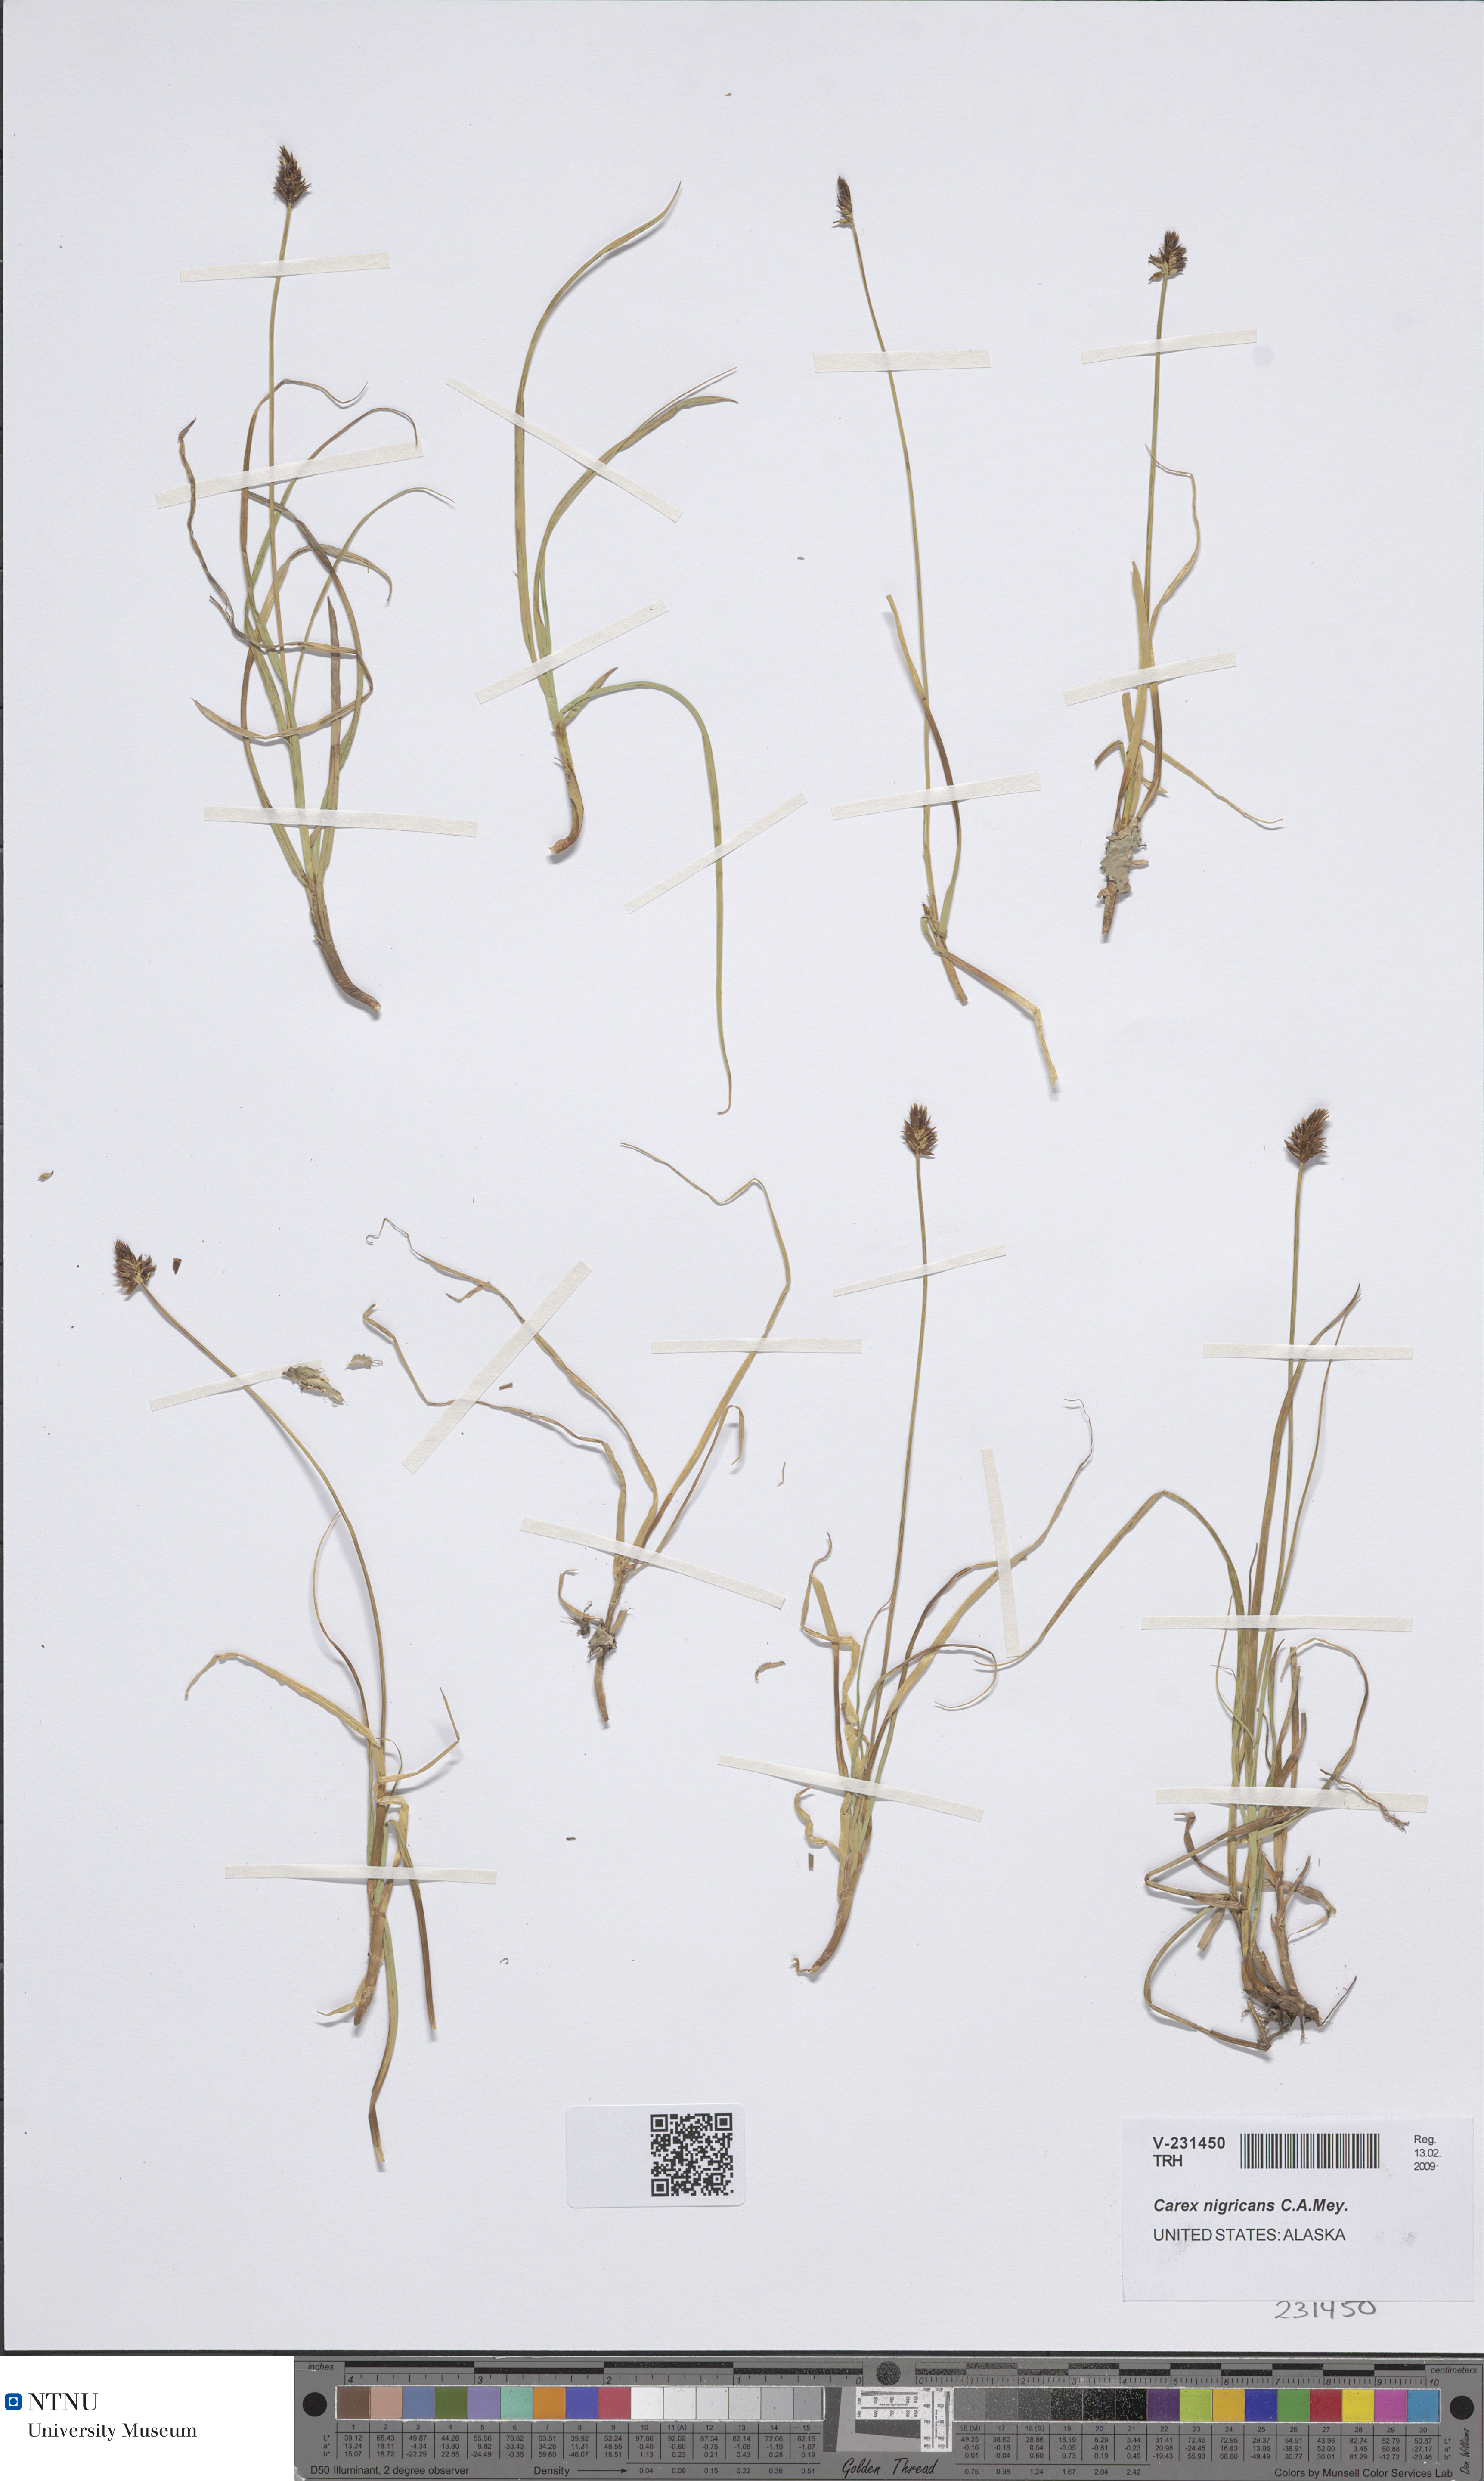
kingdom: Plantae
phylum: Tracheophyta
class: Liliopsida
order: Poales
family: Cyperaceae
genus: Carex
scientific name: Carex nigricans
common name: Black alpine sedge
